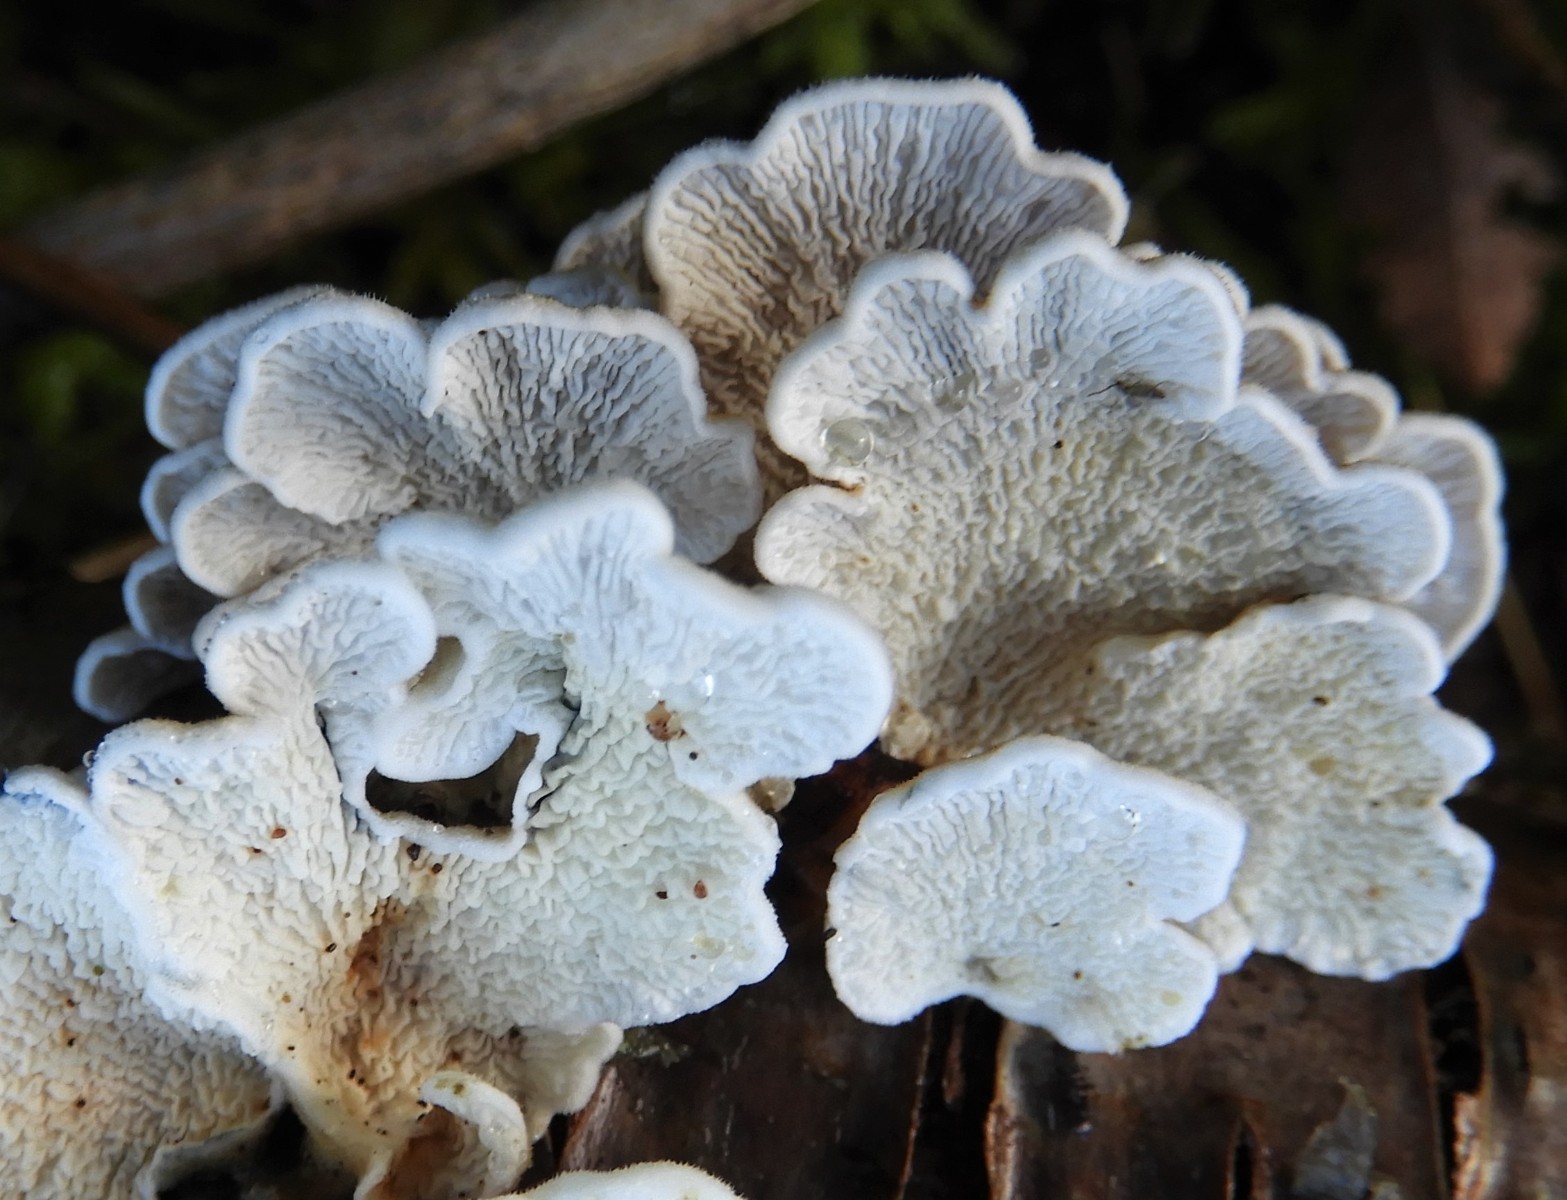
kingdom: Fungi
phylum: Basidiomycota
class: Agaricomycetes
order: Amylocorticiales
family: Amylocorticiaceae
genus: Plicaturopsis
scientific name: Plicaturopsis crispa
